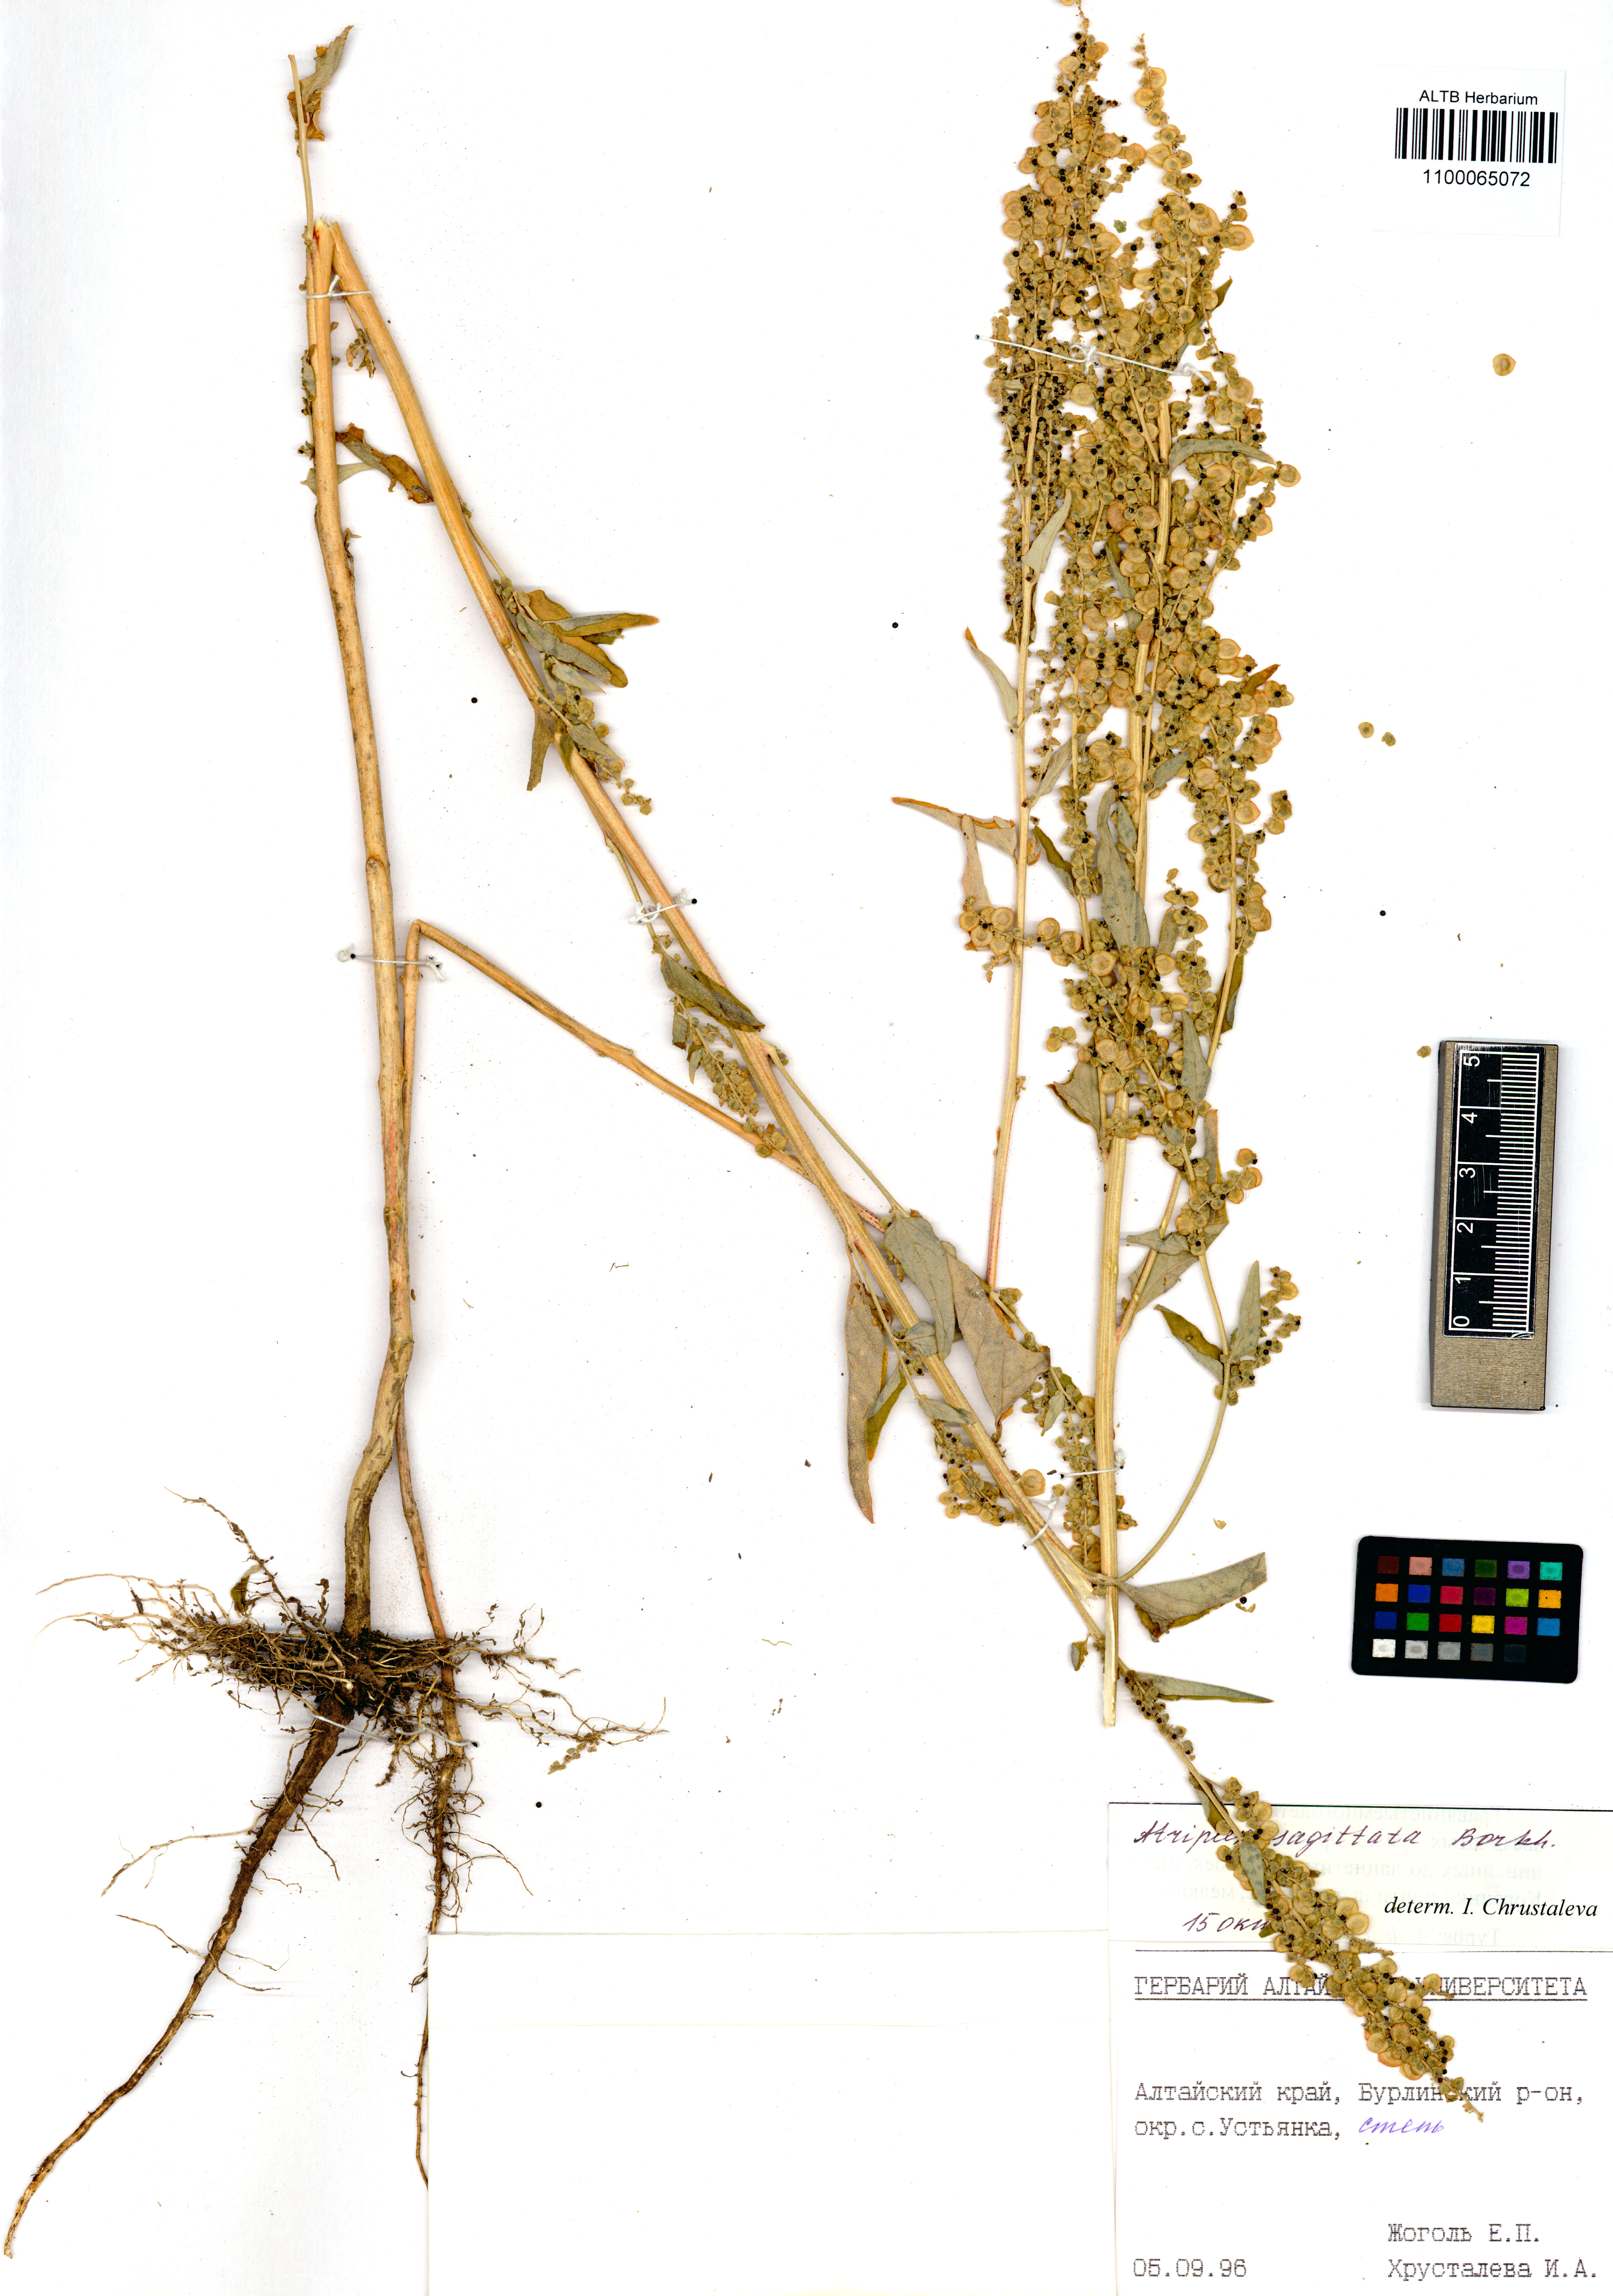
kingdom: Plantae
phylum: Tracheophyta
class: Magnoliopsida
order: Caryophyllales
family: Amaranthaceae
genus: Atriplex
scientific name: Atriplex sagittata
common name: Purple orache
